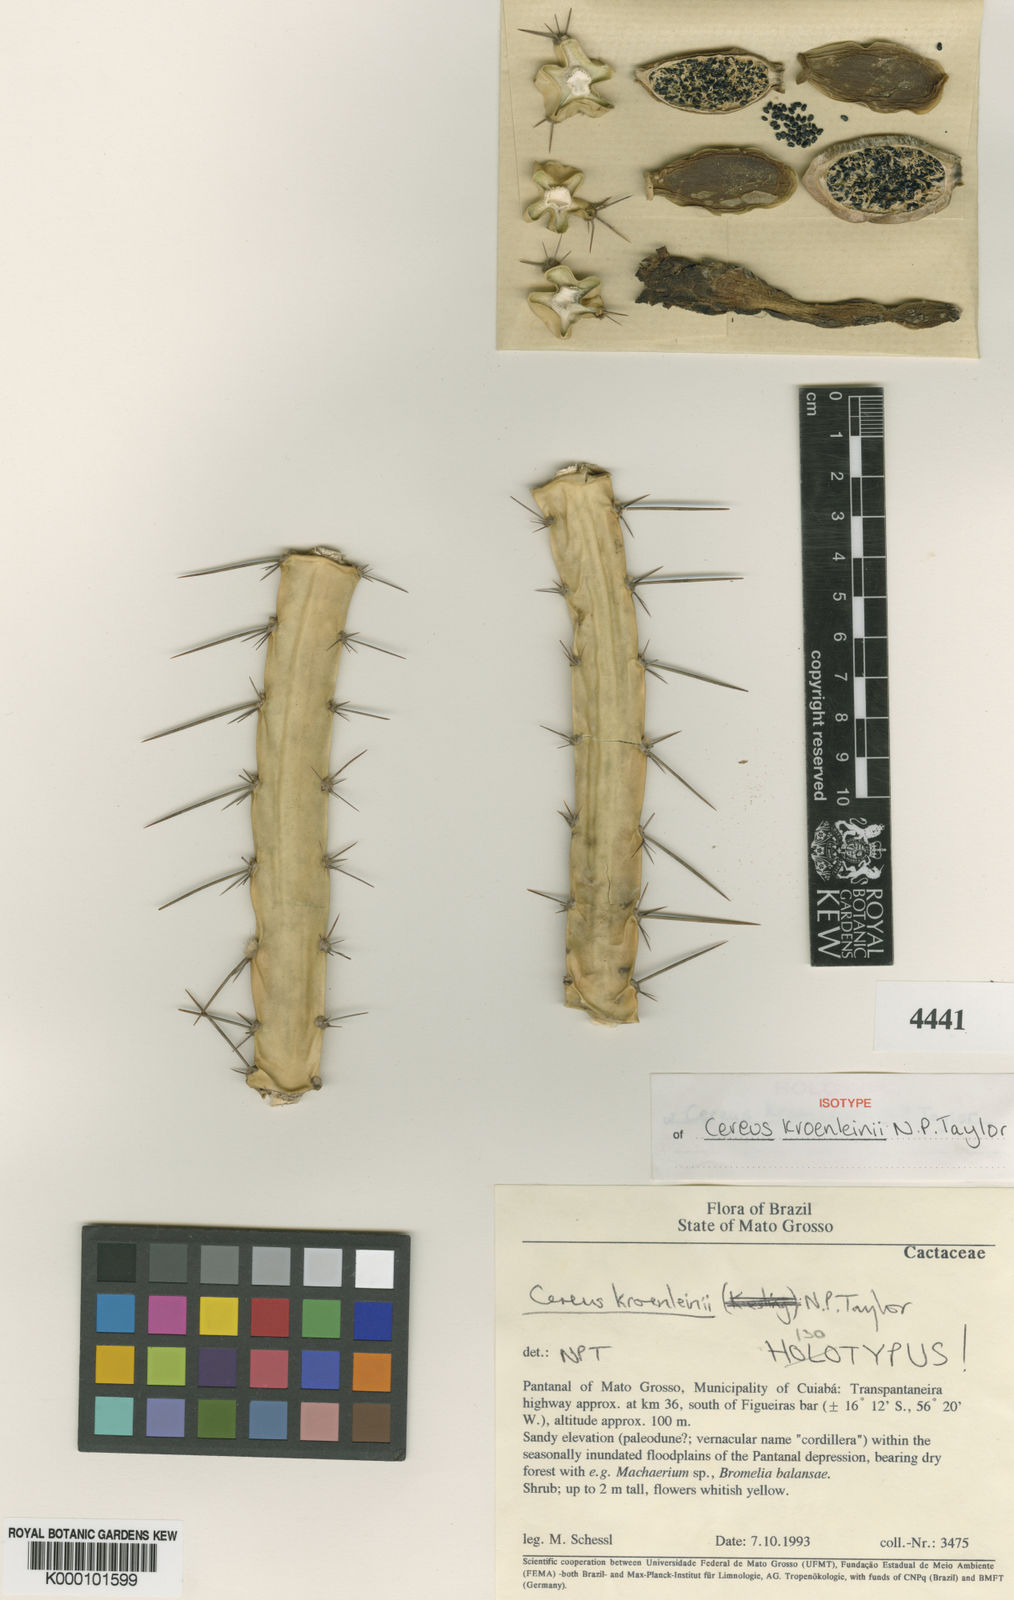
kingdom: Plantae
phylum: Tracheophyta
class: Magnoliopsida
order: Caryophyllales
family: Cactaceae
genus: Cereus
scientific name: Cereus phatnospermus
